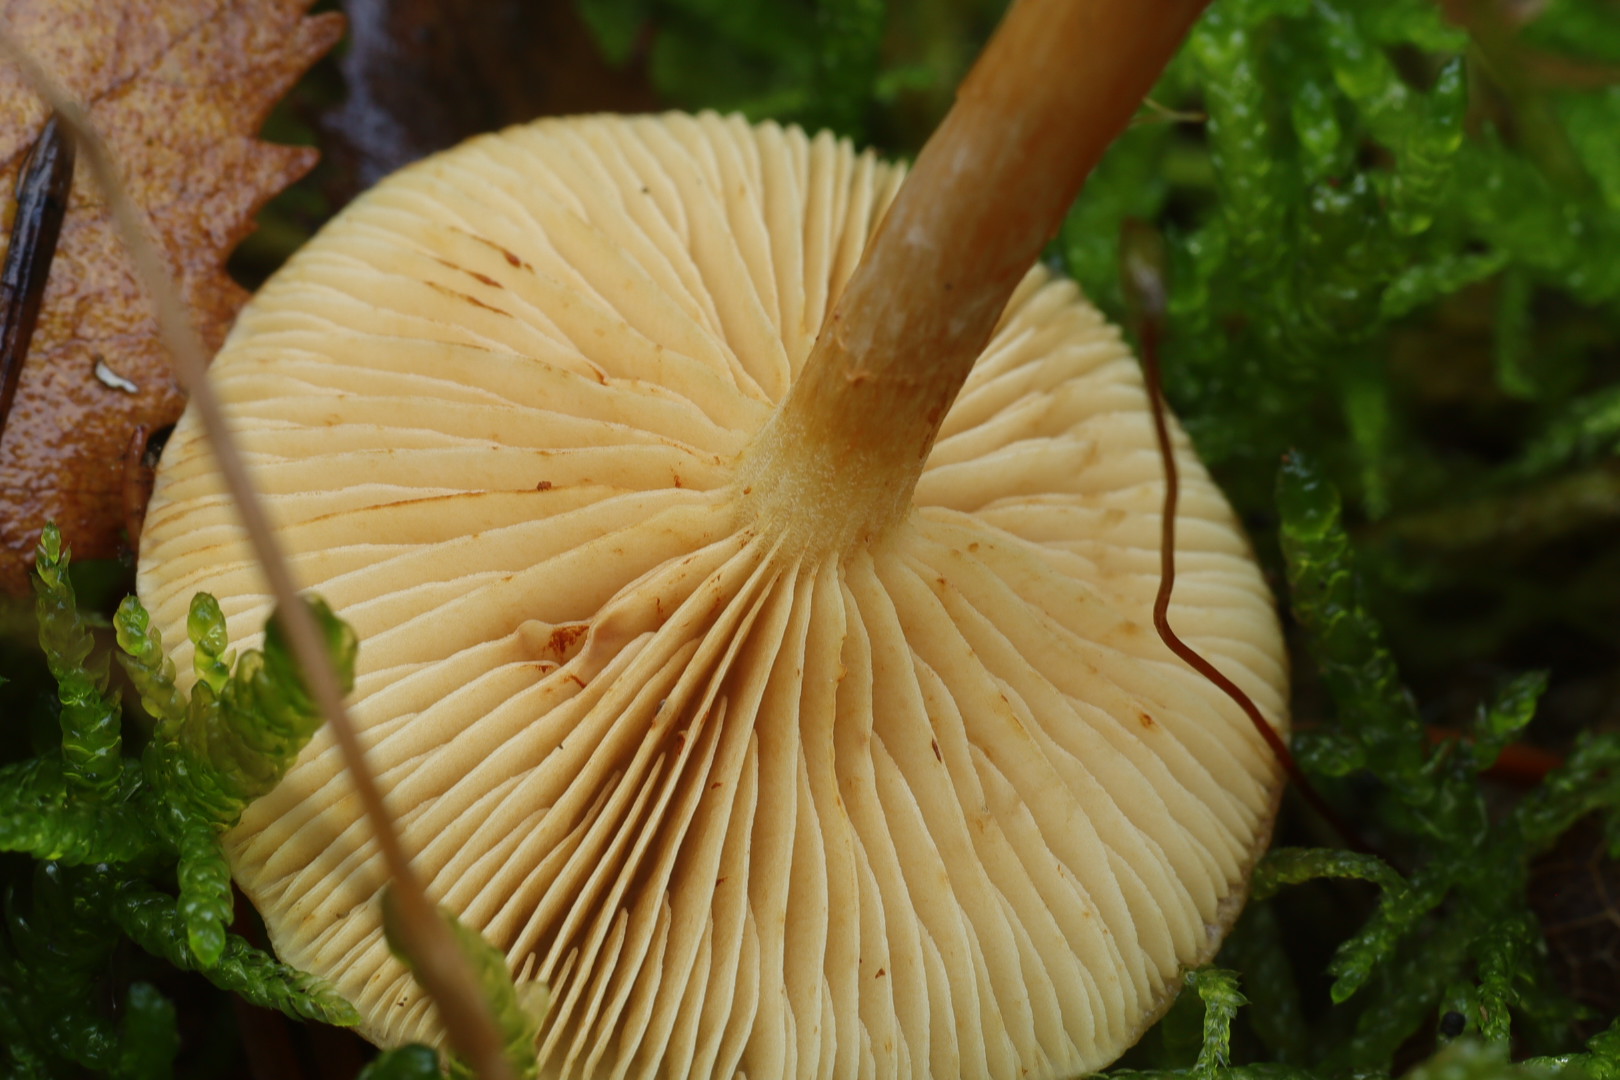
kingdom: Fungi
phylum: Basidiomycota
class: Agaricomycetes
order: Agaricales
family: Hymenogastraceae
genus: Gymnopilus
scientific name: Gymnopilus penetrans
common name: plettet flammehat
